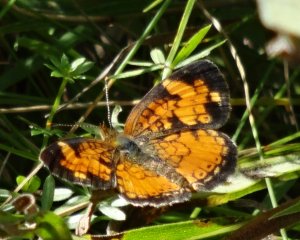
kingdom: Animalia
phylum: Arthropoda
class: Insecta
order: Lepidoptera
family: Nymphalidae
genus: Phyciodes
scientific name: Phyciodes tharos
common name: Northern Crescent
